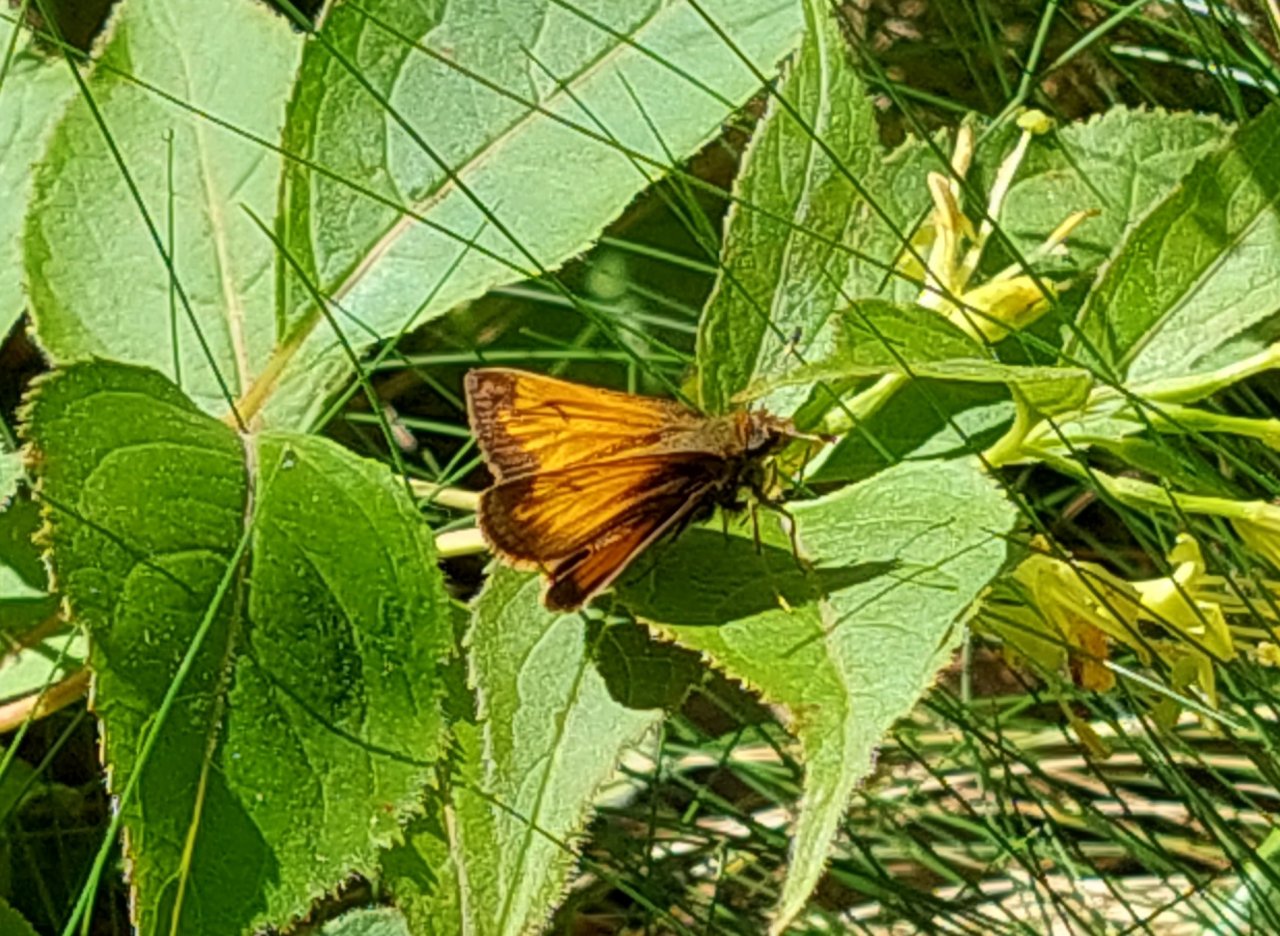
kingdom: Animalia
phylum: Arthropoda
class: Insecta
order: Lepidoptera
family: Hesperiidae
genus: Lon
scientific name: Lon hobomok
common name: Hobomok Skipper
